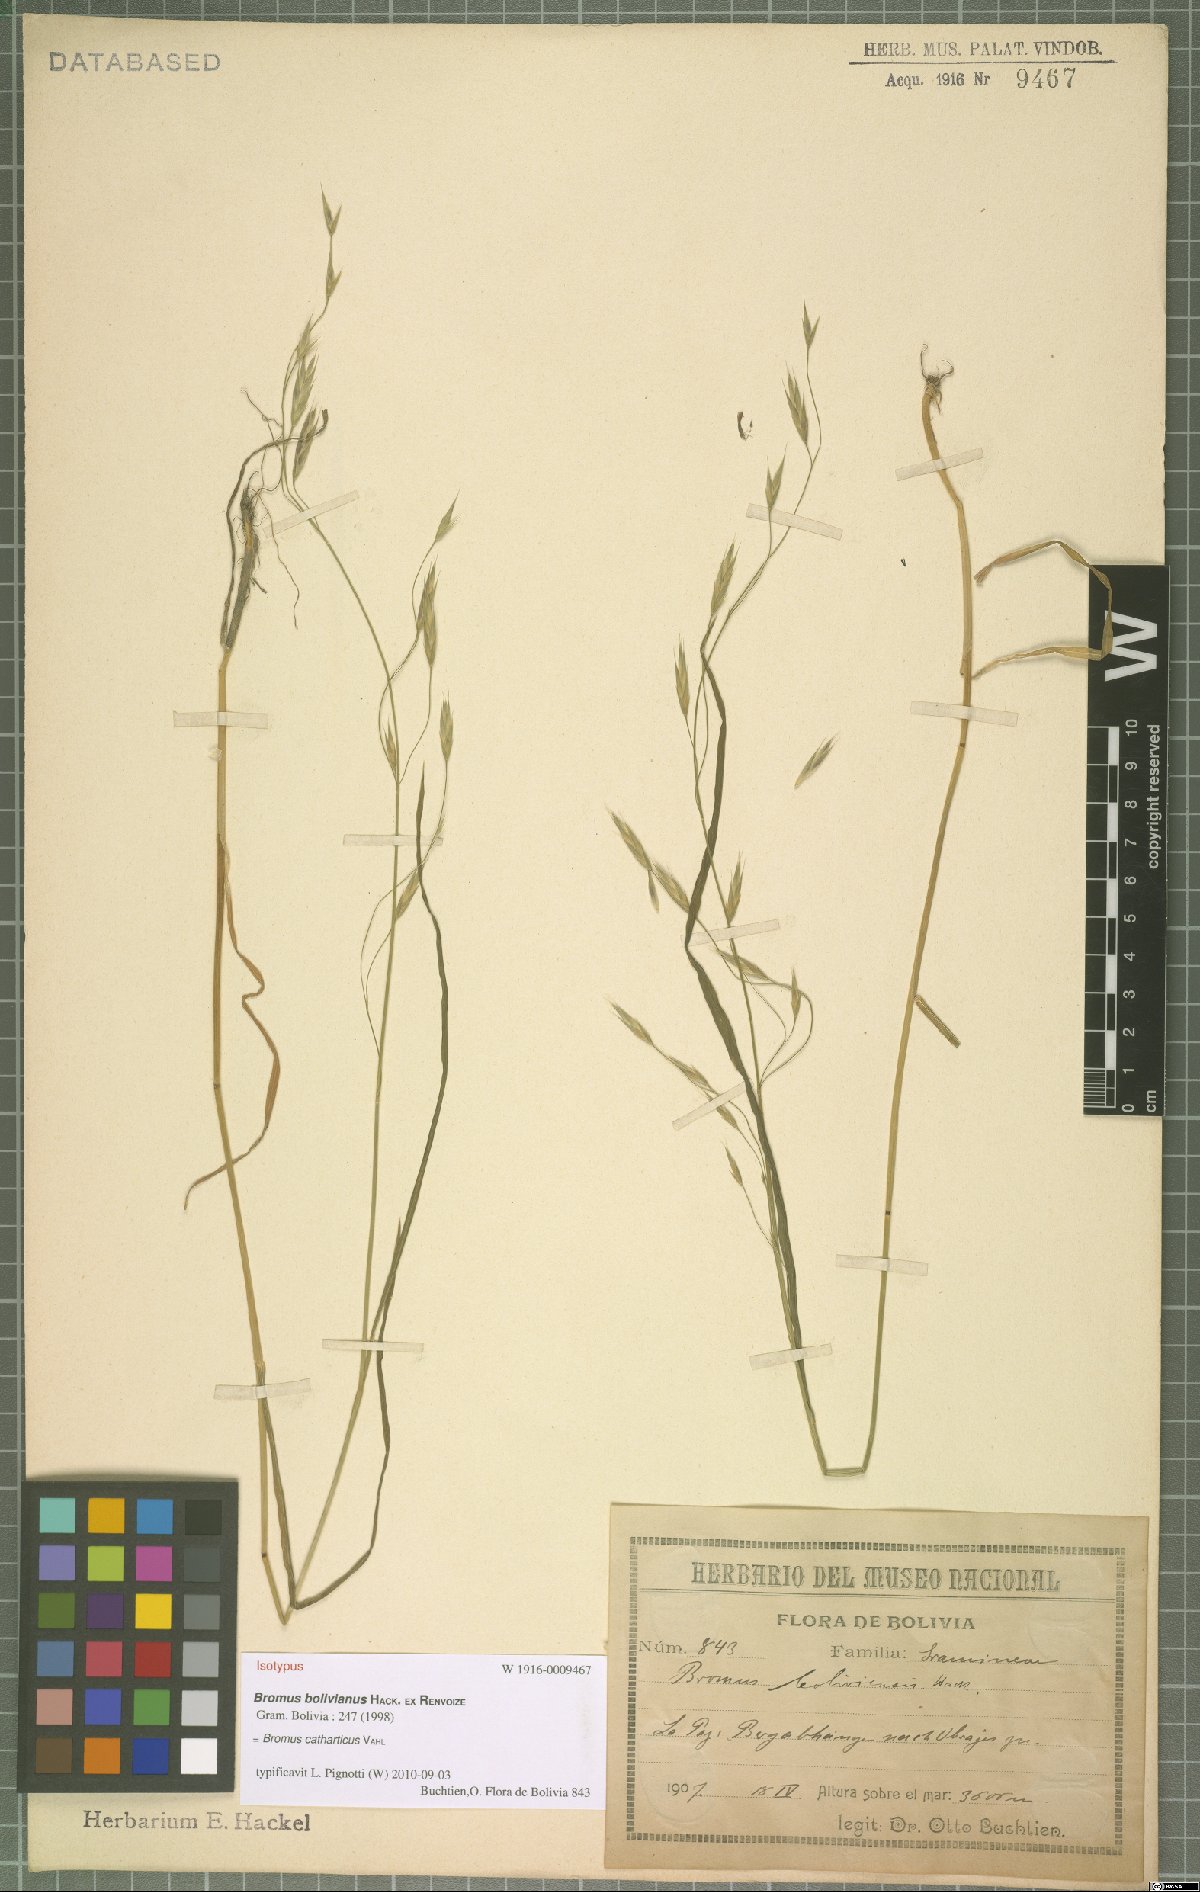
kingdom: Plantae
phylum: Tracheophyta
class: Liliopsida
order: Poales
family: Poaceae
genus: Bromus
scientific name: Bromus catharticus
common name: Rescuegrass
